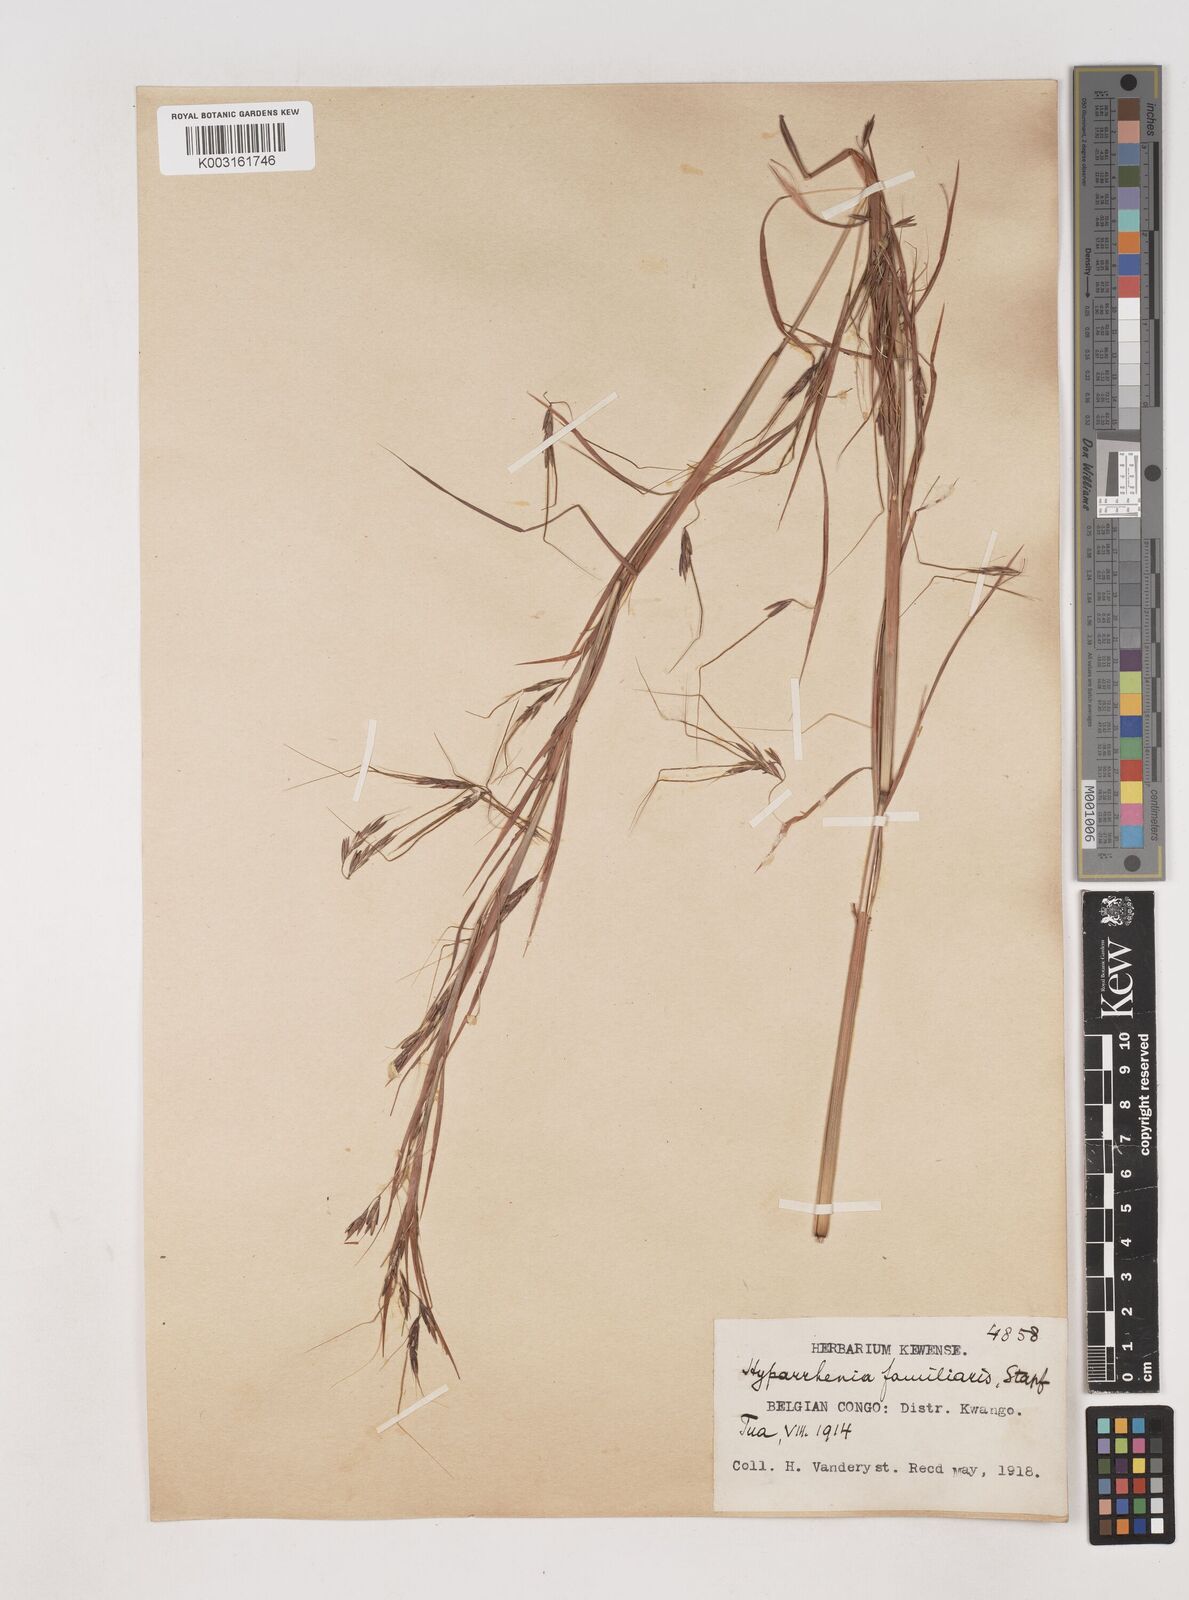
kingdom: Plantae
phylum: Tracheophyta
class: Liliopsida
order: Poales
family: Poaceae
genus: Hyparrhenia
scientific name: Hyparrhenia familiaris
